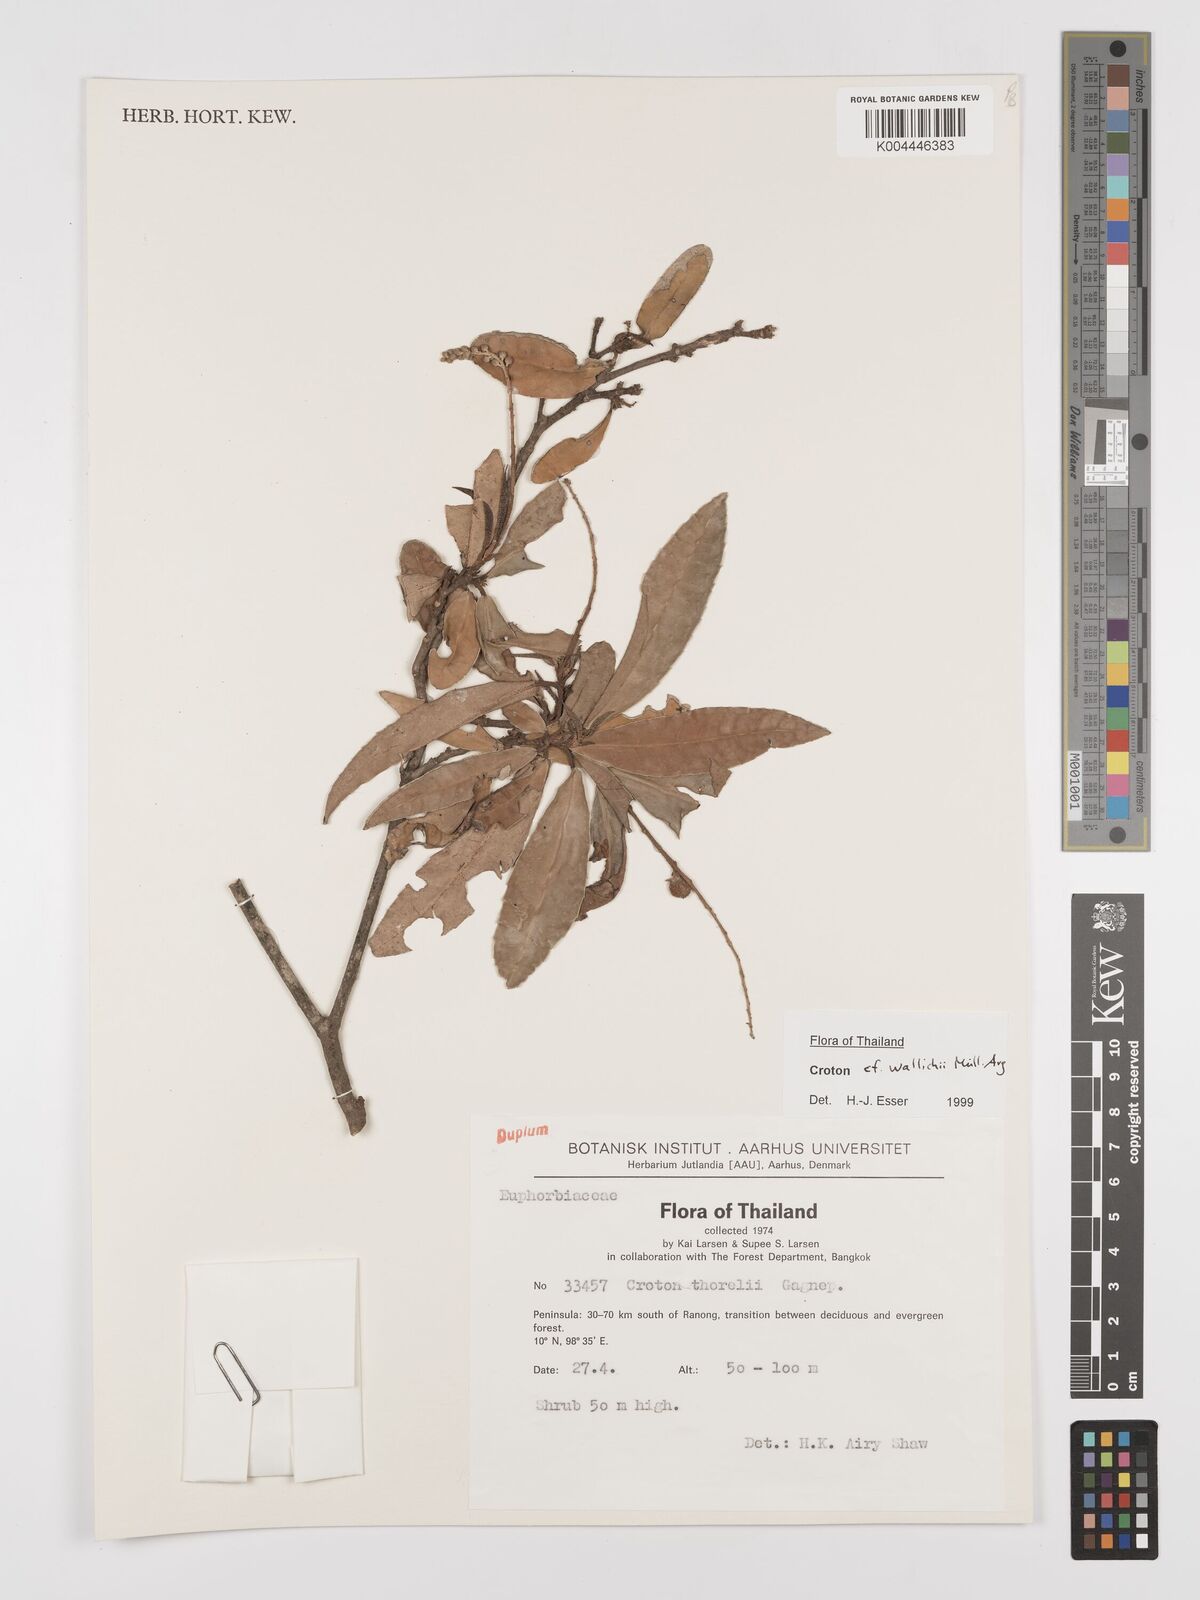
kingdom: Plantae
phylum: Tracheophyta
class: Magnoliopsida
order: Malpighiales
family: Euphorbiaceae
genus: Croton
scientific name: Croton wallichii
